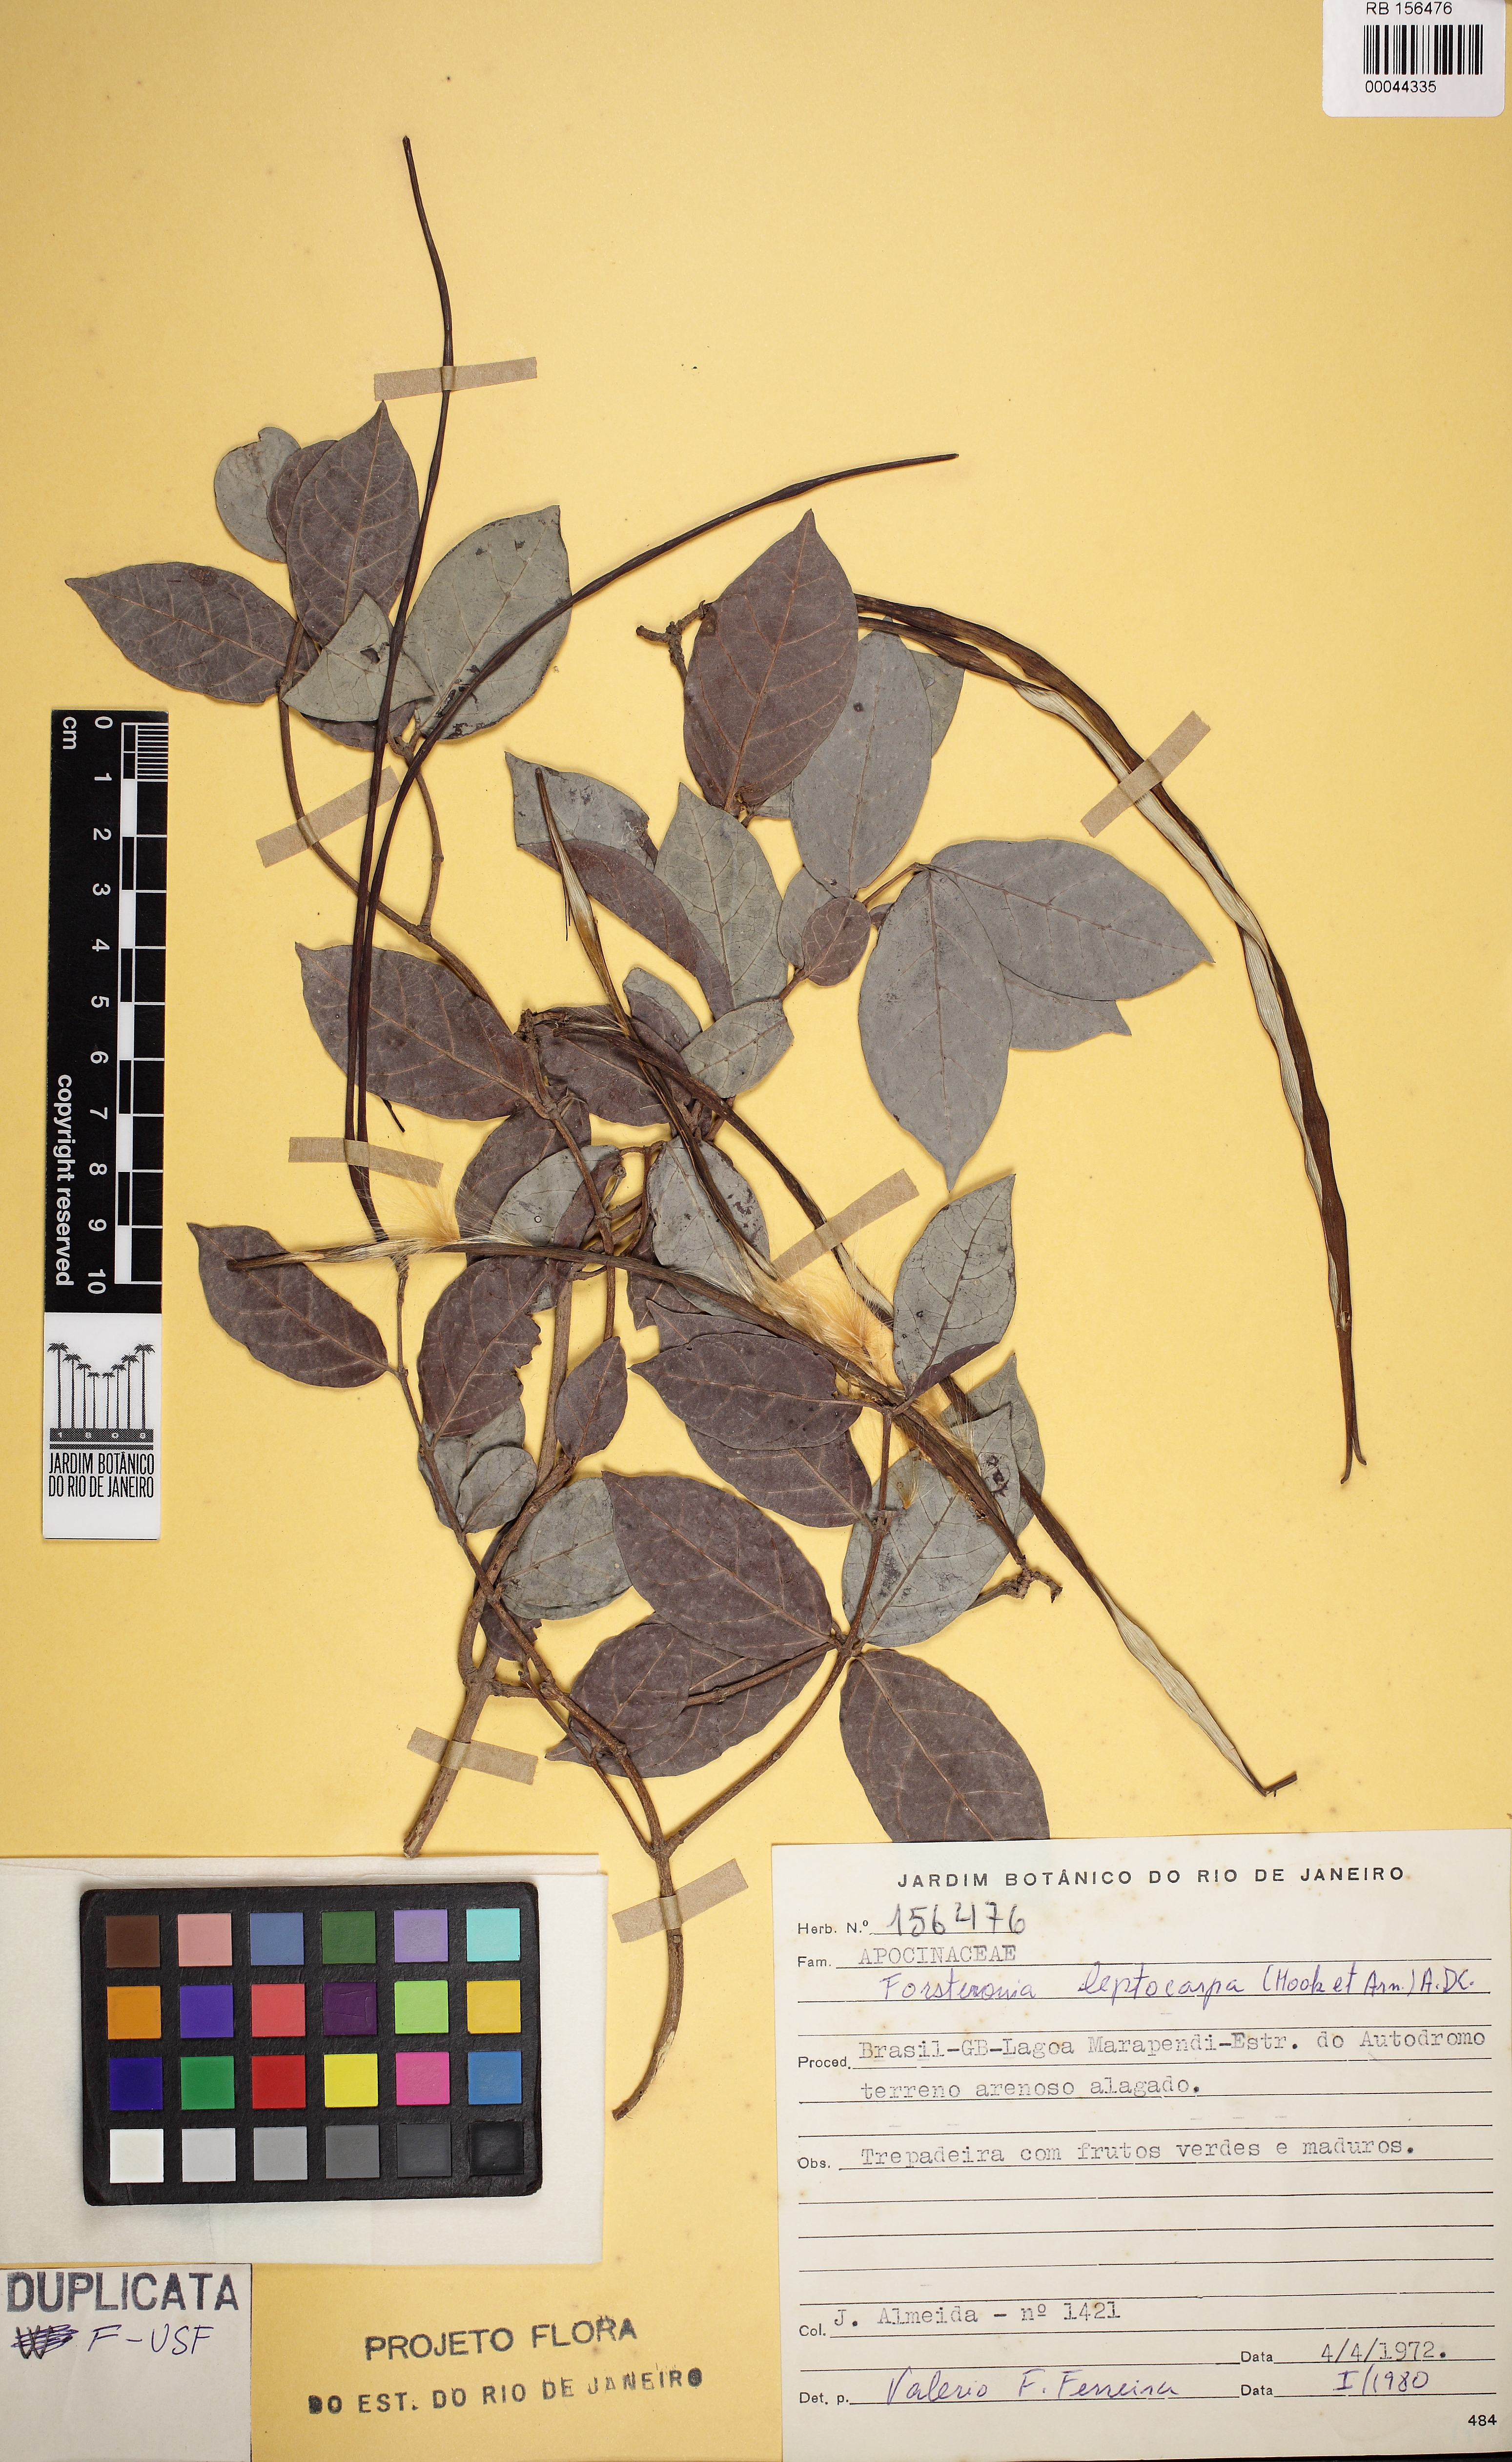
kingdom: Plantae
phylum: Tracheophyta
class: Magnoliopsida
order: Gentianales
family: Apocynaceae
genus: Forsteronia
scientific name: Forsteronia leptocarpa
